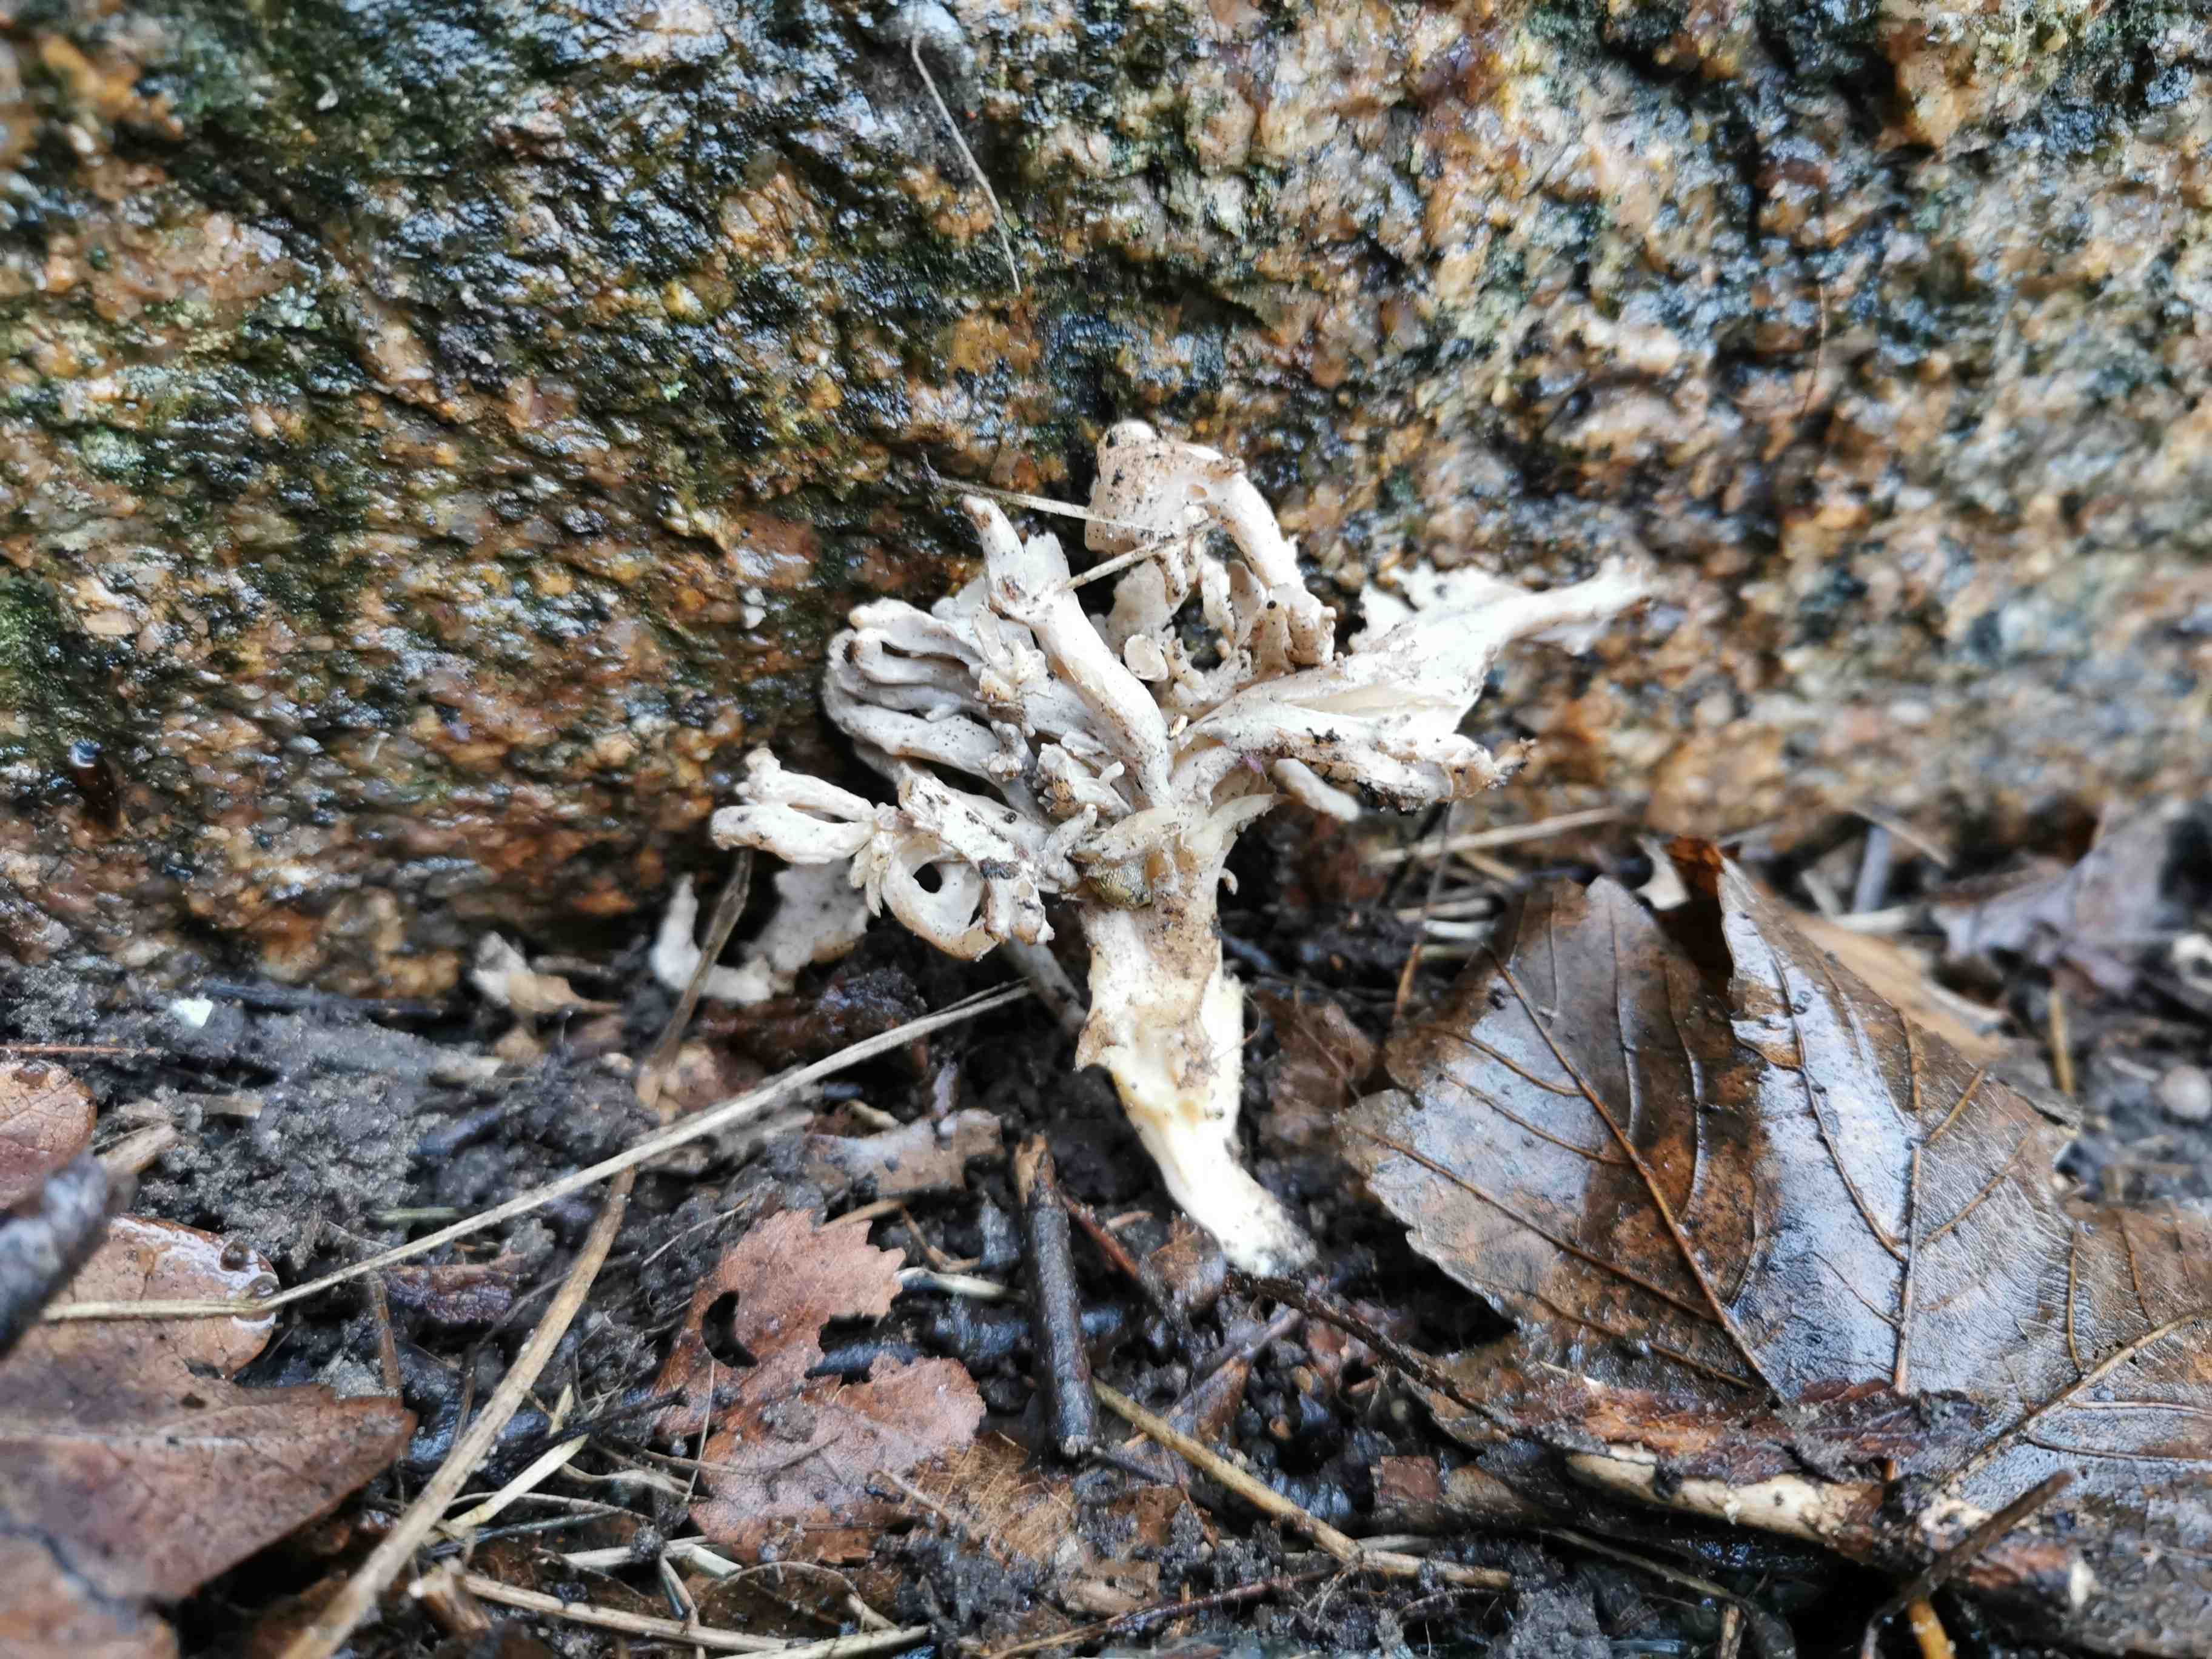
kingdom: Fungi
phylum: Basidiomycota
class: Agaricomycetes
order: Cantharellales
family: Hydnaceae
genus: Clavulina
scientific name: Clavulina
